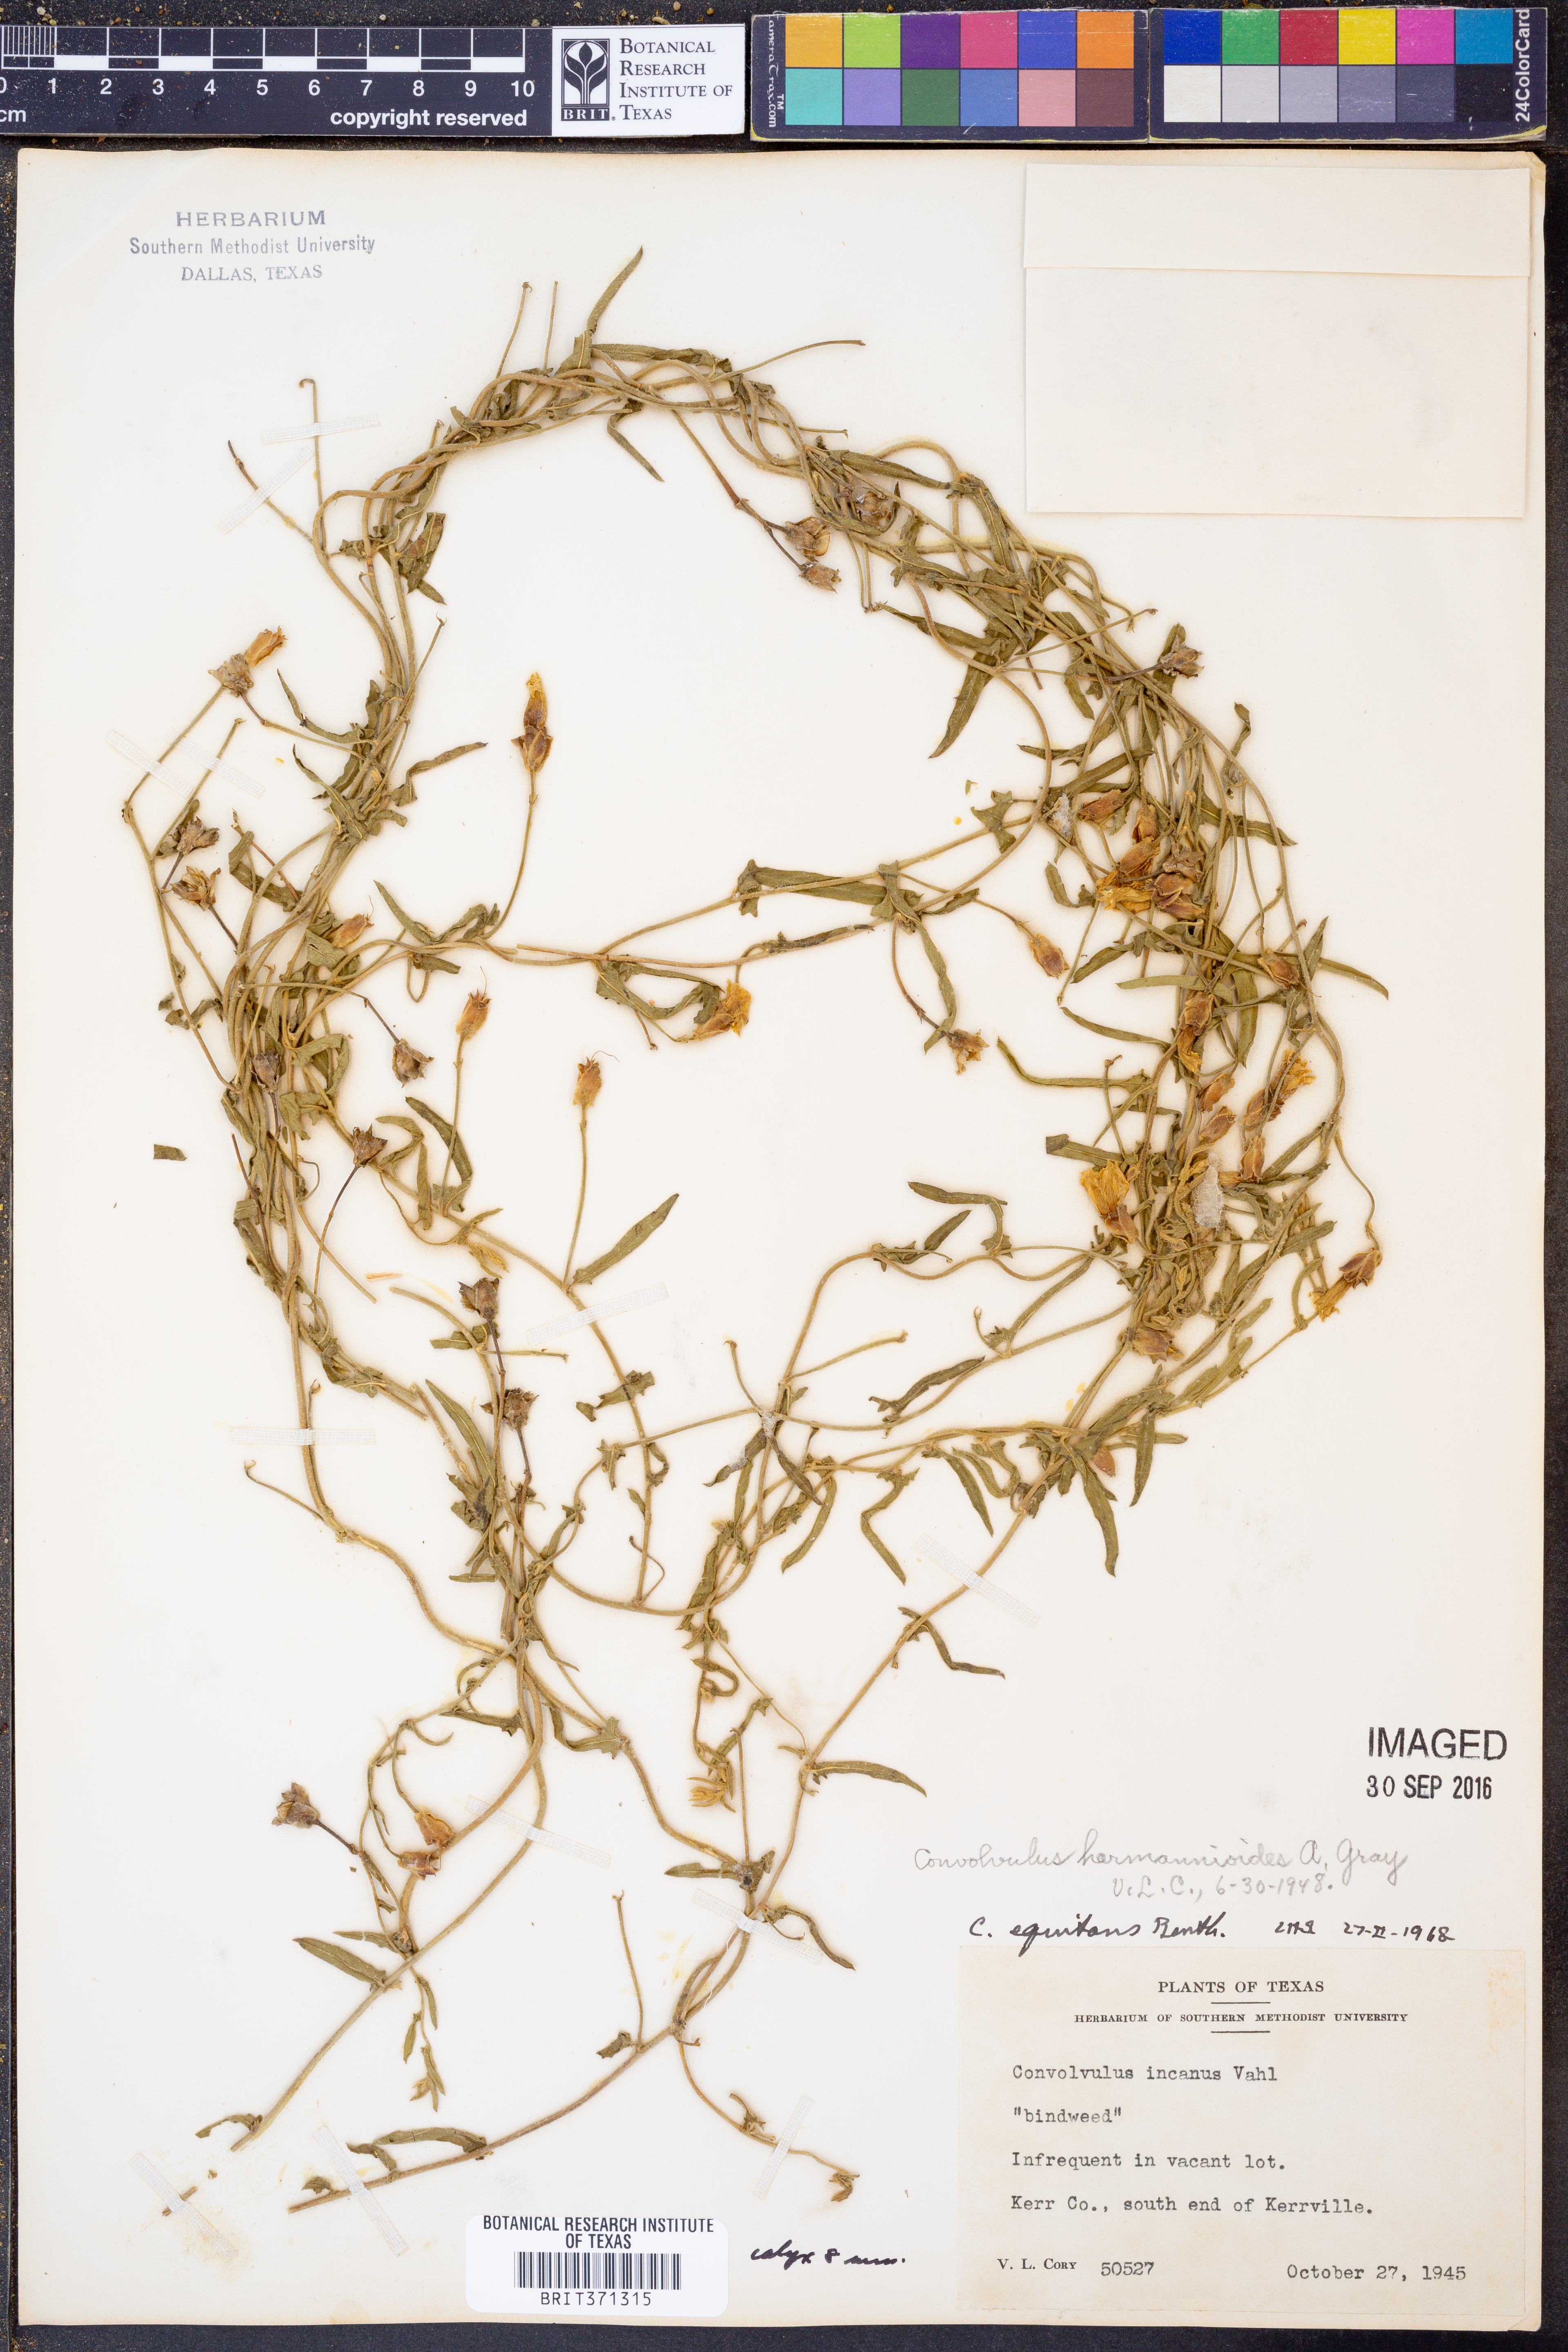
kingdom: Plantae
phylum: Tracheophyta
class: Magnoliopsida
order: Solanales
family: Convolvulaceae
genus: Convolvulus
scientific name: Convolvulus equitans
